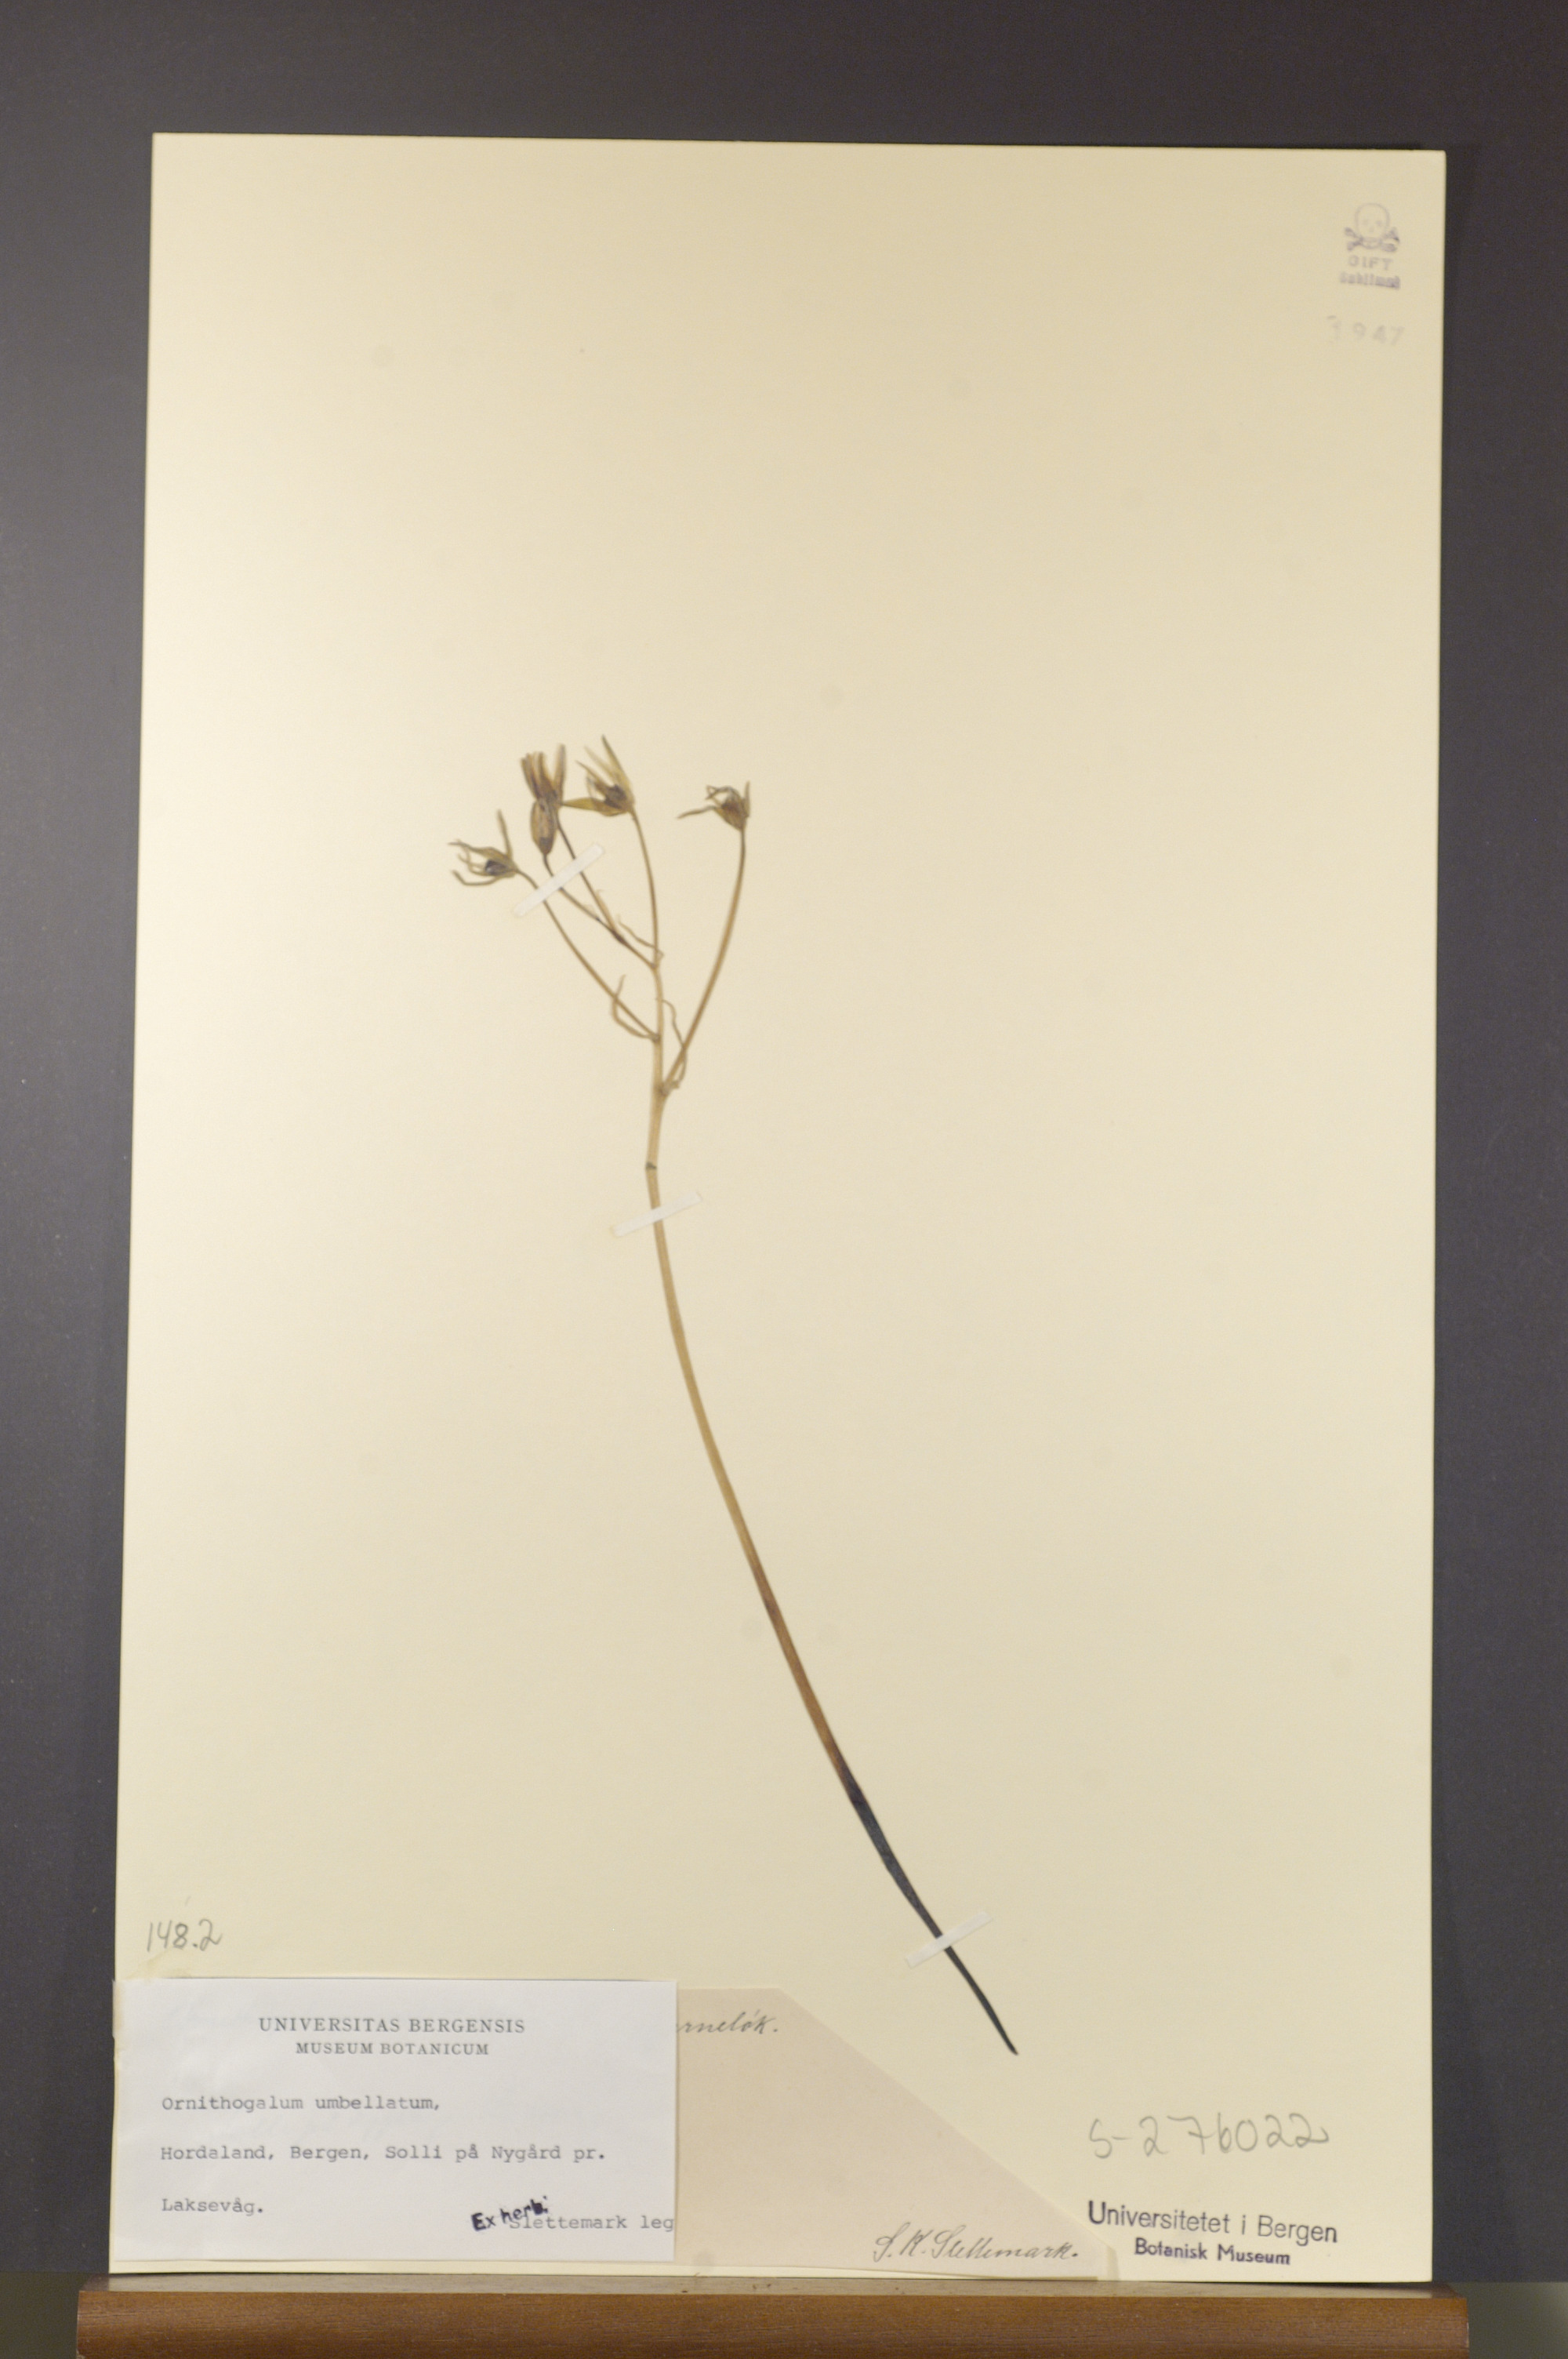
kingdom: Plantae
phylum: Tracheophyta
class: Liliopsida
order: Asparagales
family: Asparagaceae
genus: Ornithogalum
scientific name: Ornithogalum umbellatum
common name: Garden star-of-bethlehem
